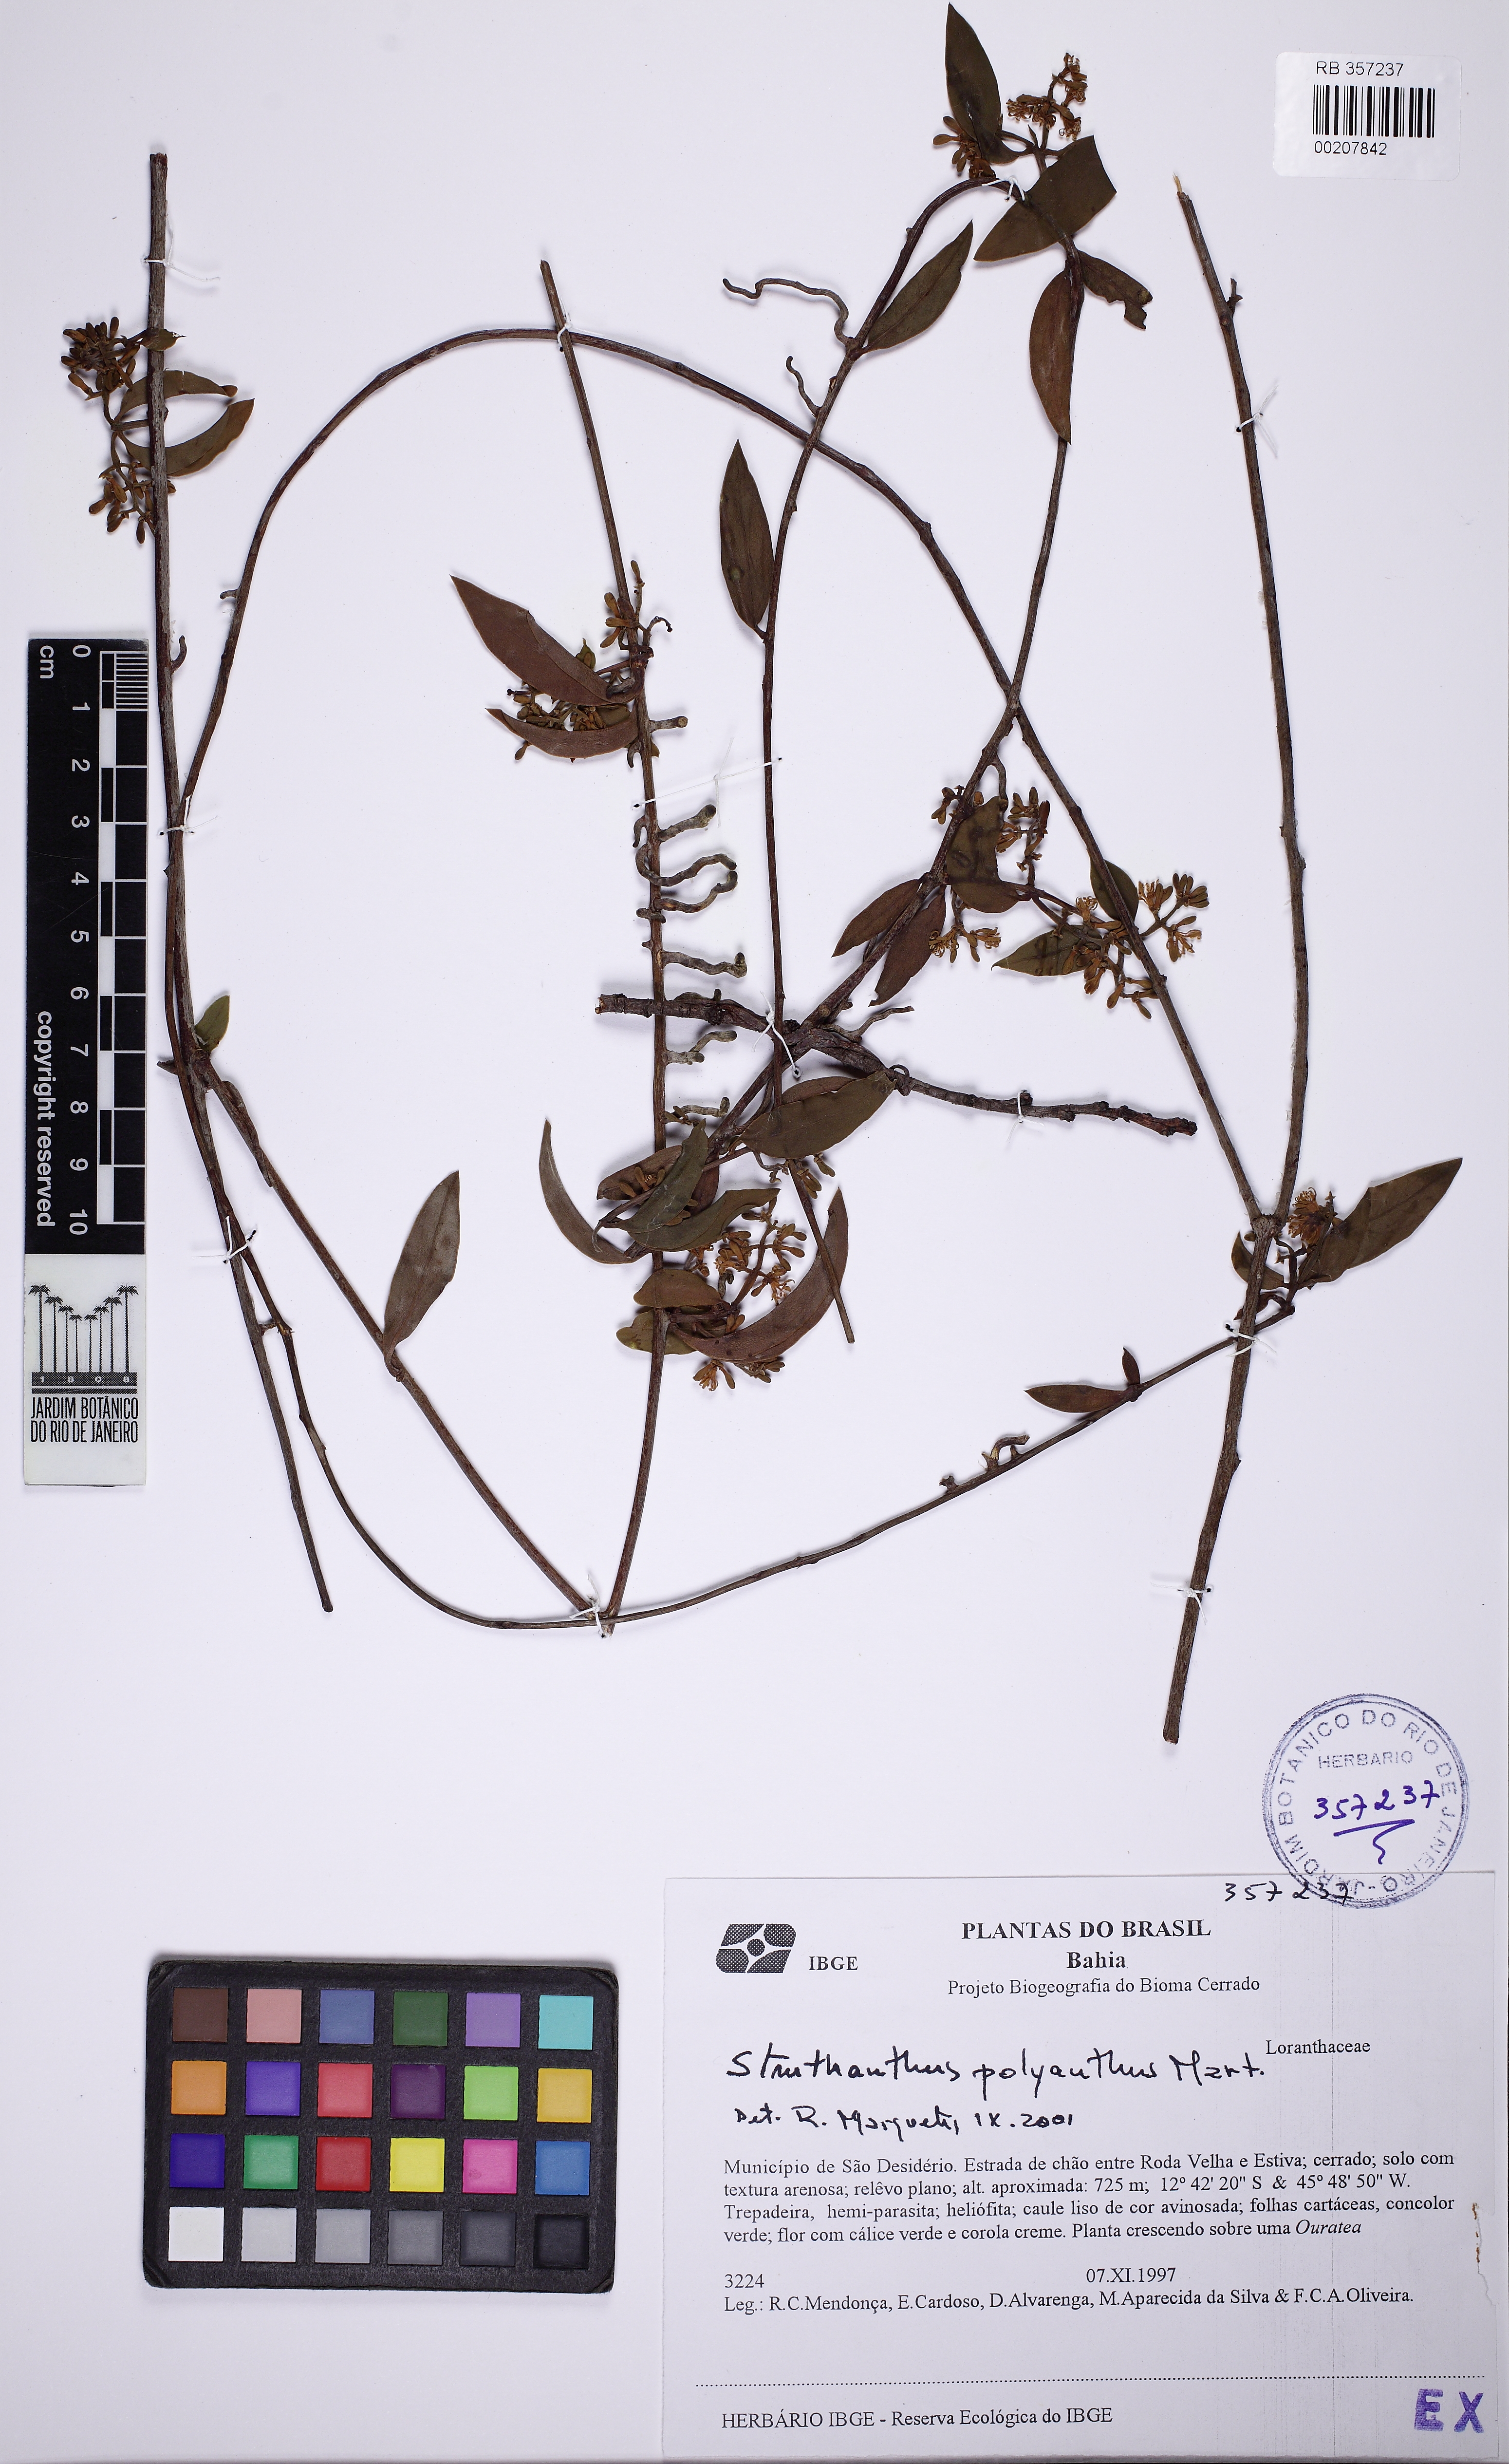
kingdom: Plantae
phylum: Tracheophyta
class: Magnoliopsida
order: Santalales
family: Loranthaceae
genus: Struthanthus
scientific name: Struthanthus polyanthus
